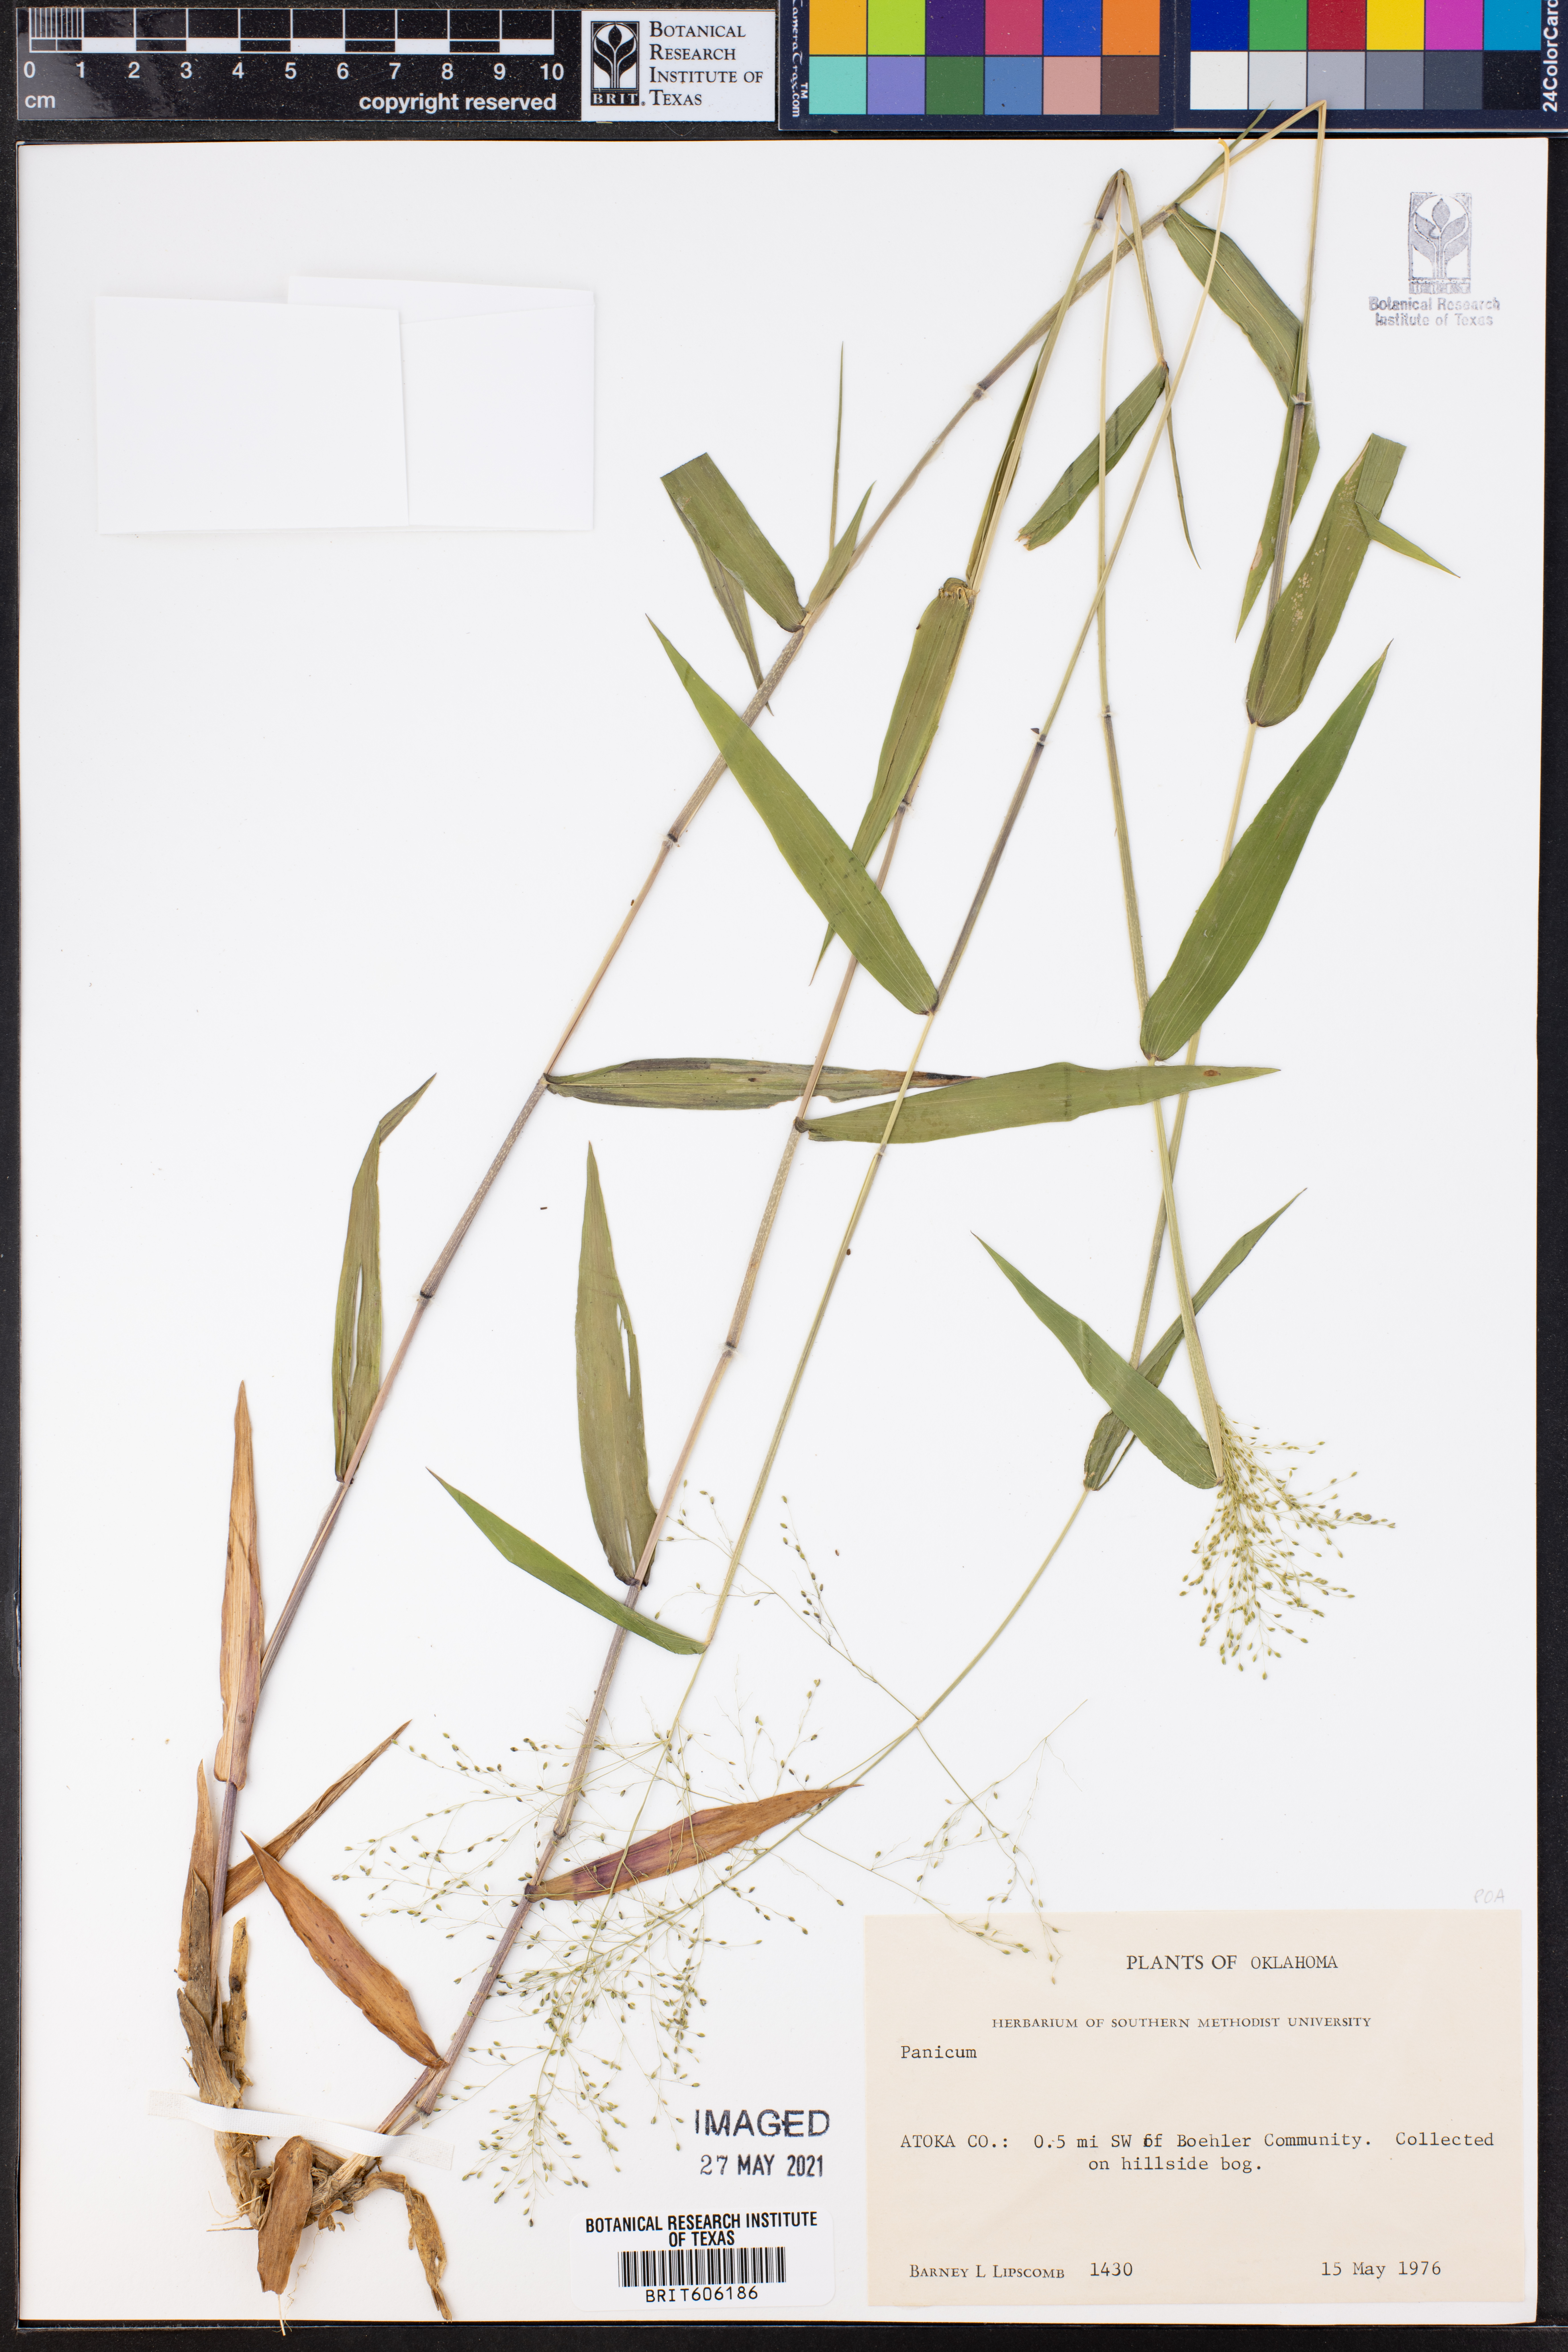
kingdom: Plantae
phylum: Tracheophyta
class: Liliopsida
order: Poales
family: Poaceae
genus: Panicum
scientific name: Panicum
